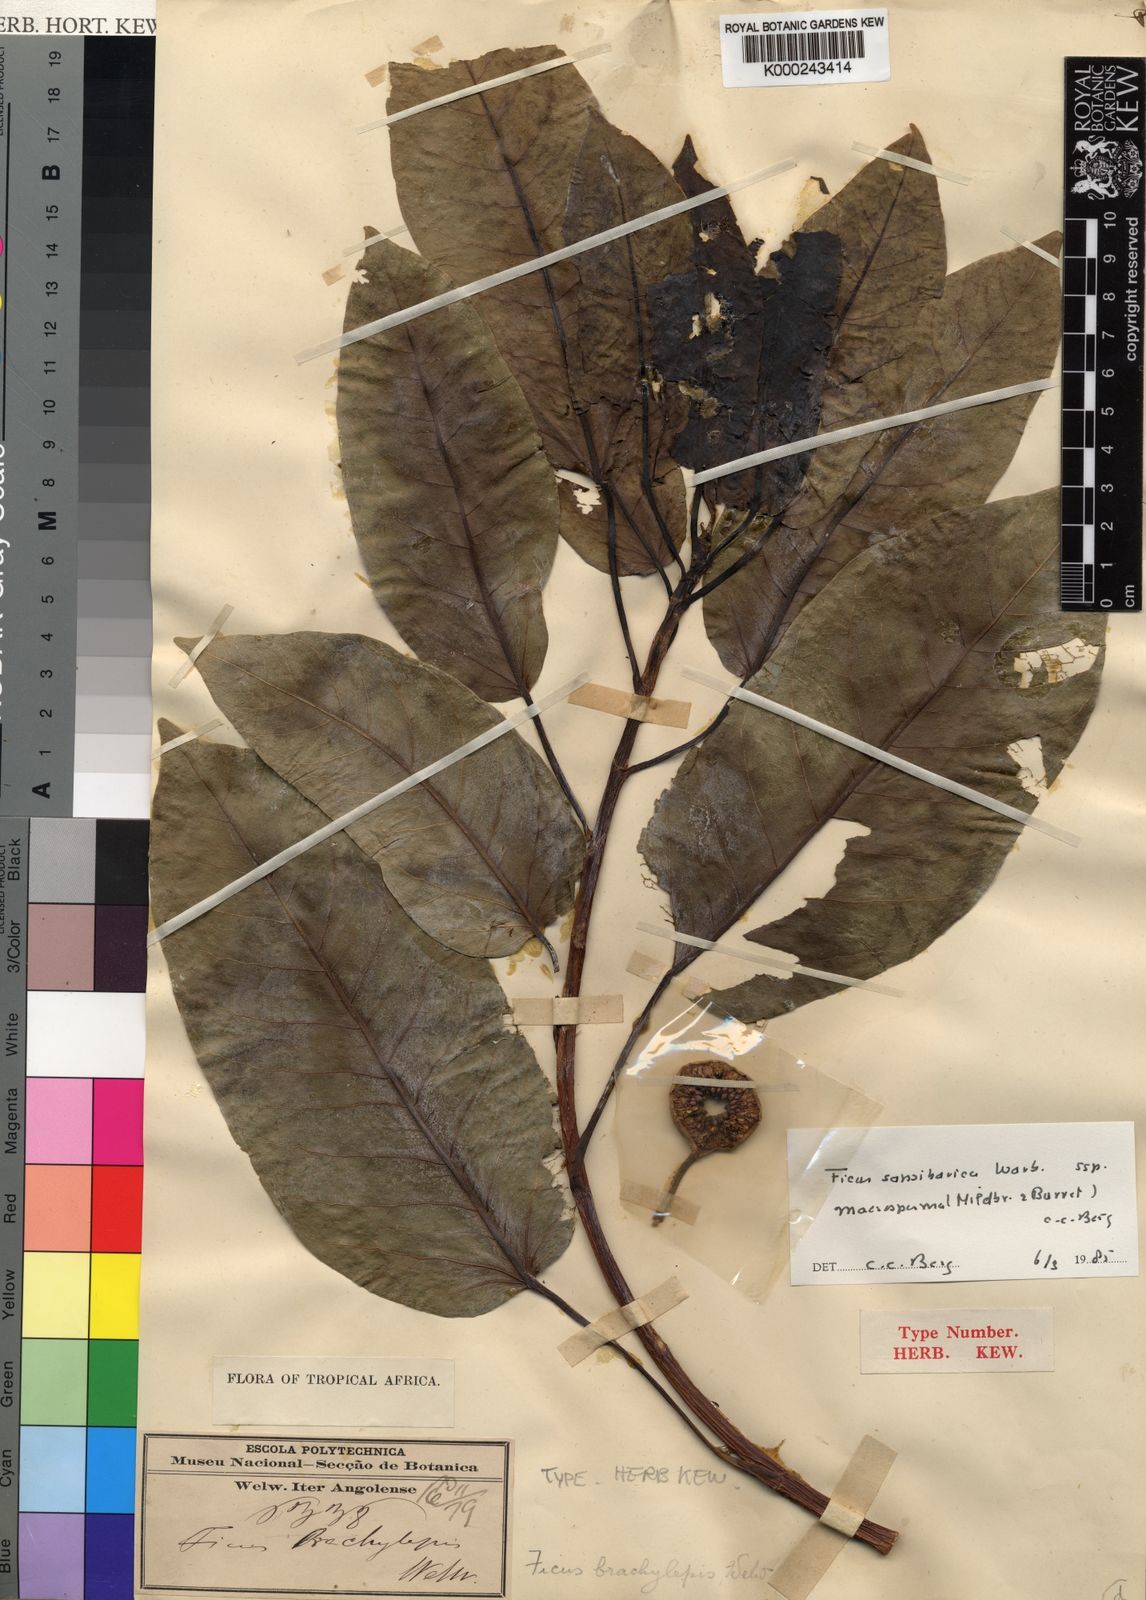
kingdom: Plantae
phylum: Tracheophyta
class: Magnoliopsida
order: Rosales
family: Moraceae
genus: Ficus
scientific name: Ficus sansibarica
